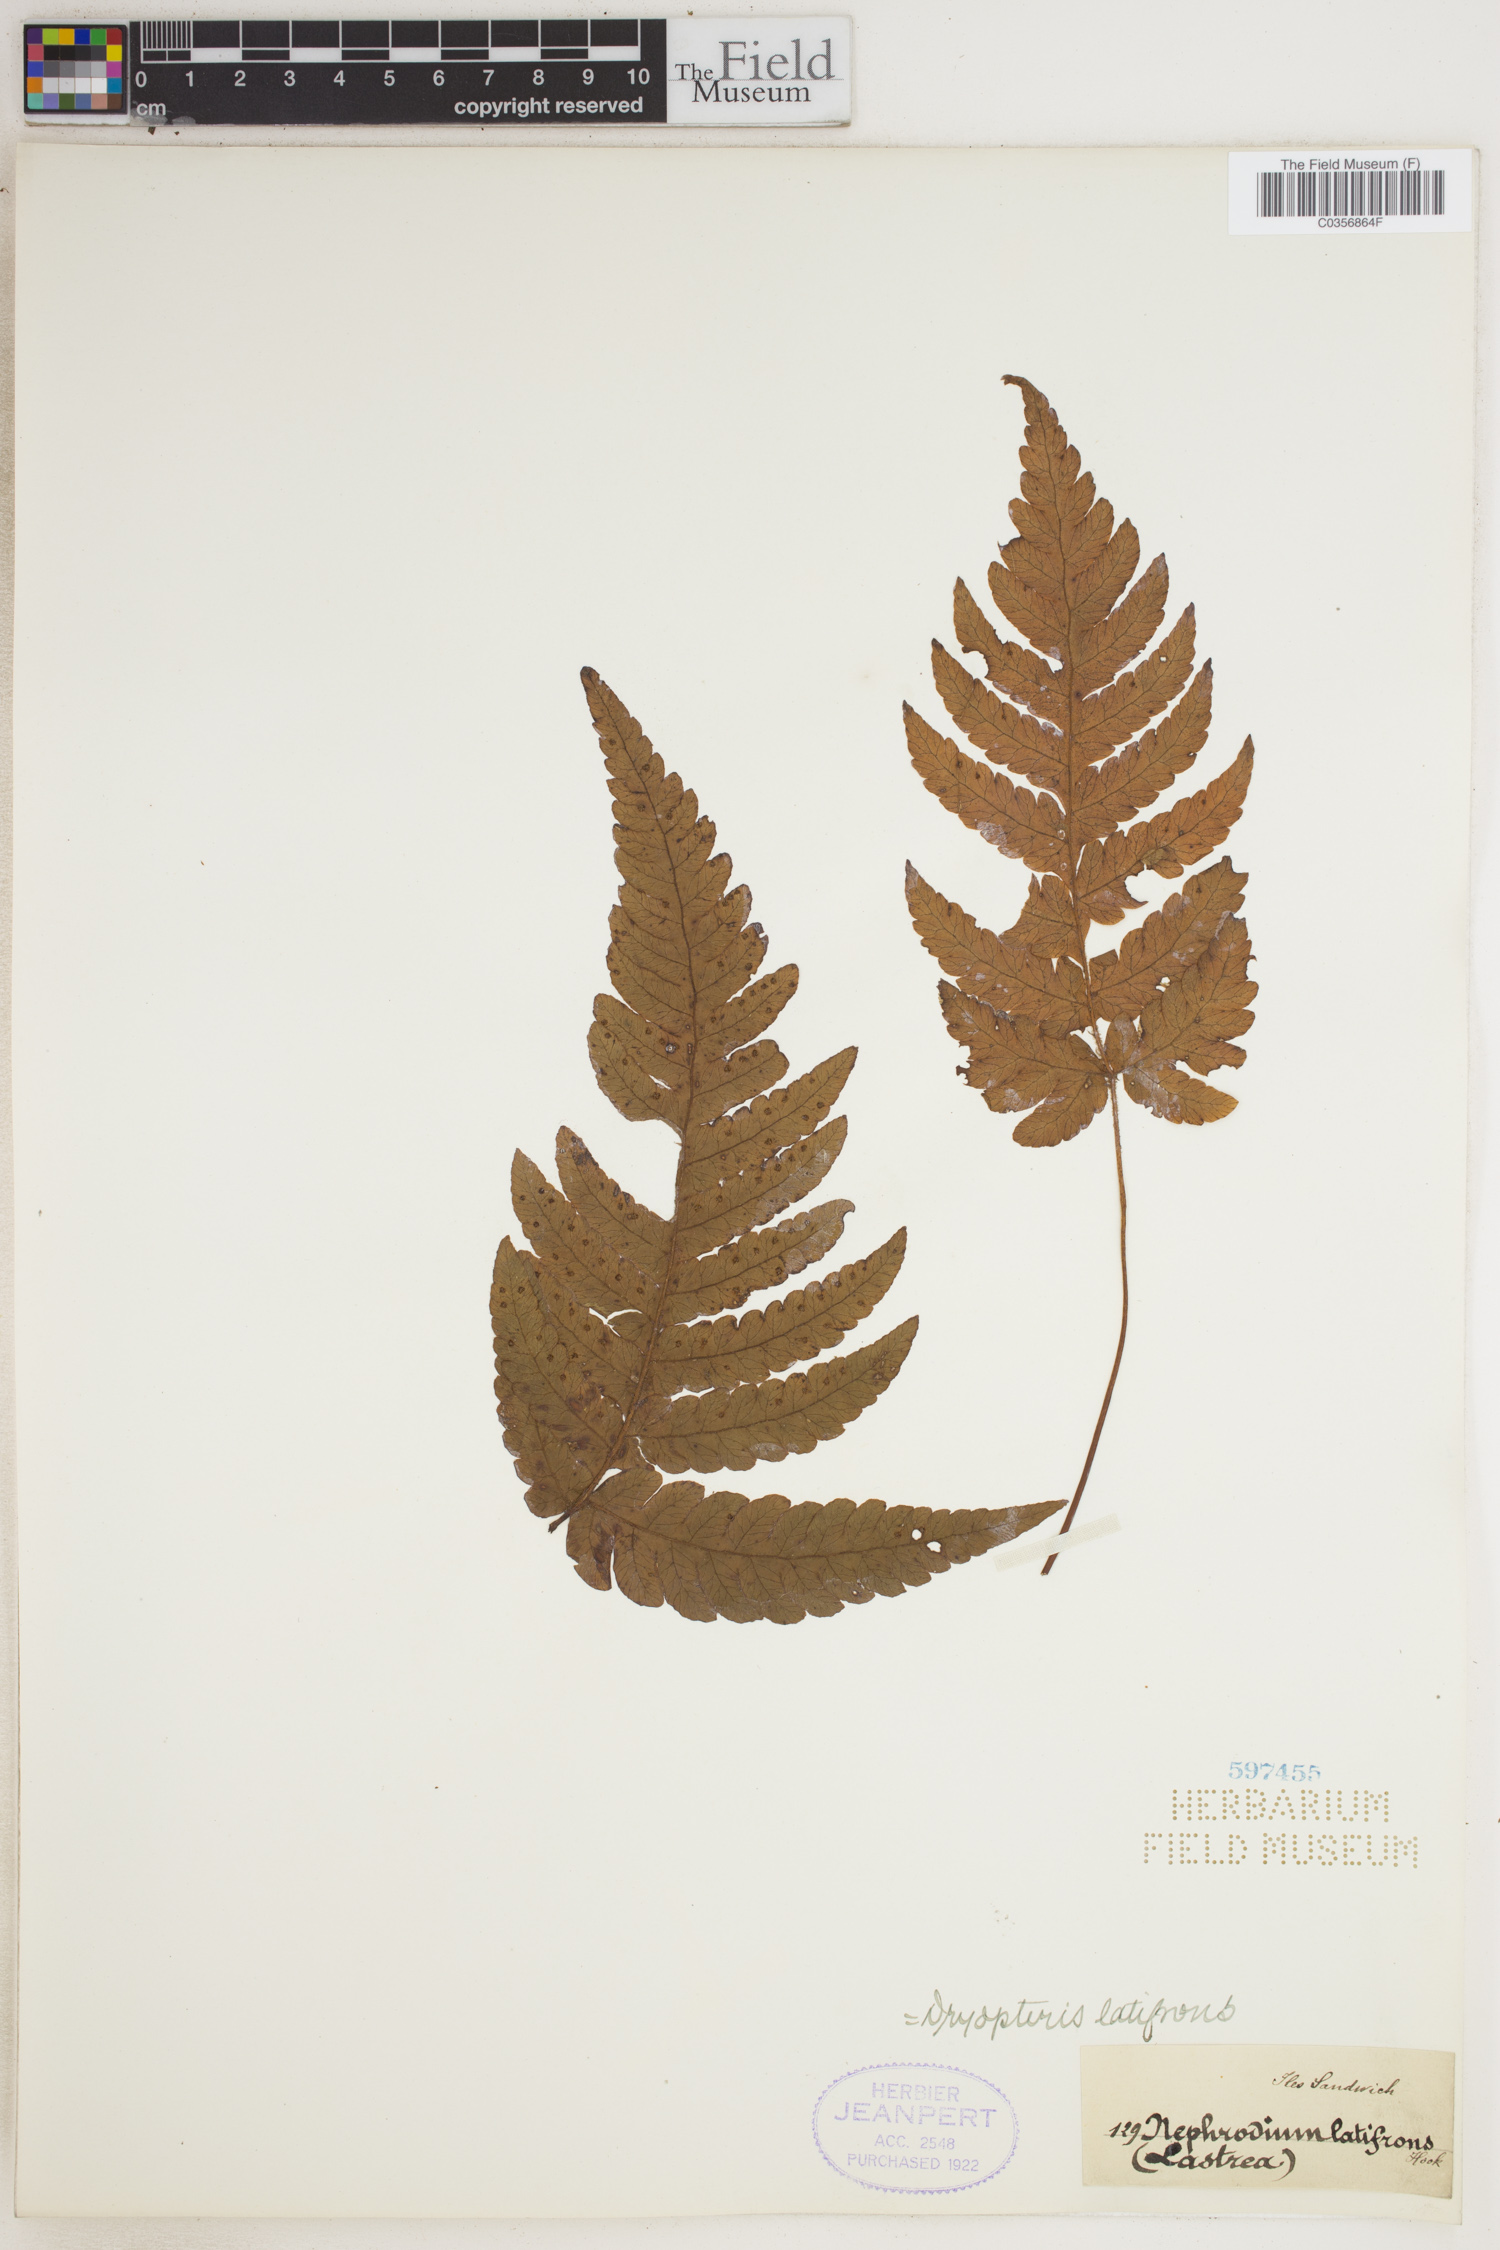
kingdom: Plantae
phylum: Tracheophyta
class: Polypodiopsida
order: Polypodiales
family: Dryopteridaceae
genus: Ctenitis
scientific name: Ctenitis latifrons
